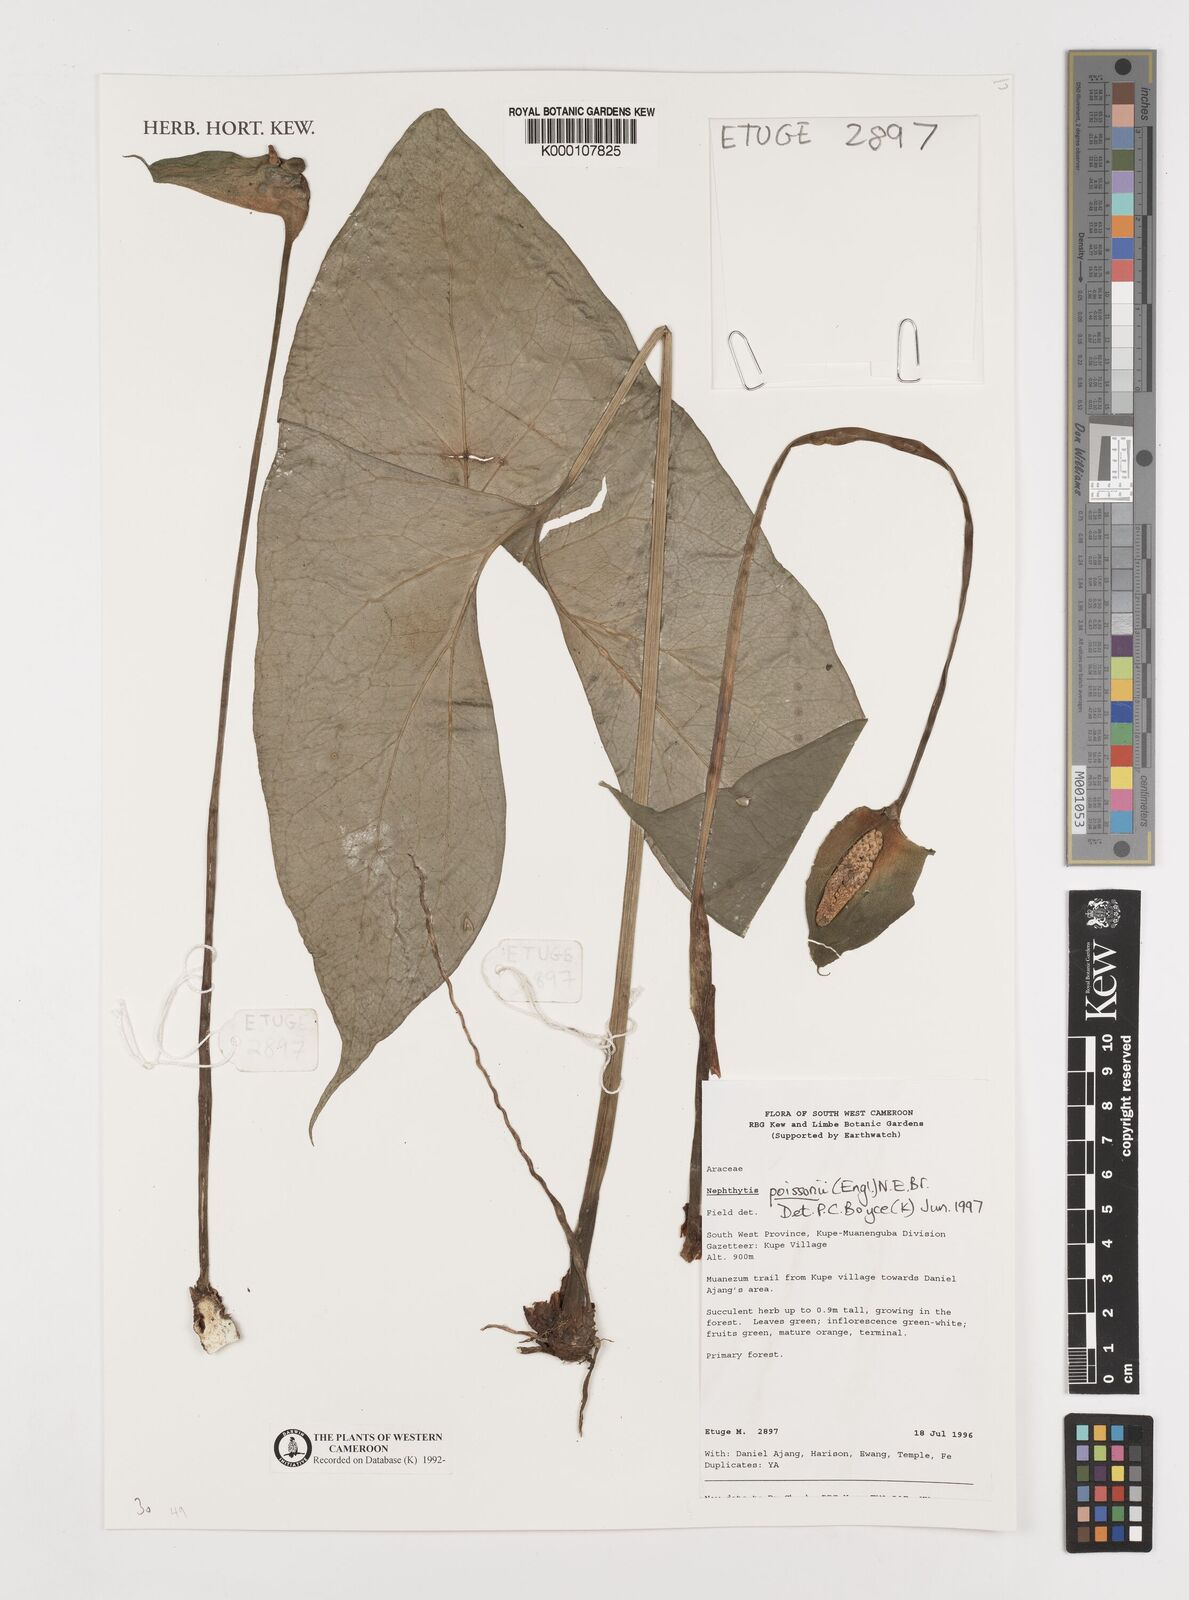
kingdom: Plantae
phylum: Tracheophyta
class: Liliopsida
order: Alismatales
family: Araceae
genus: Nephthytis
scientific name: Nephthytis poissonii
